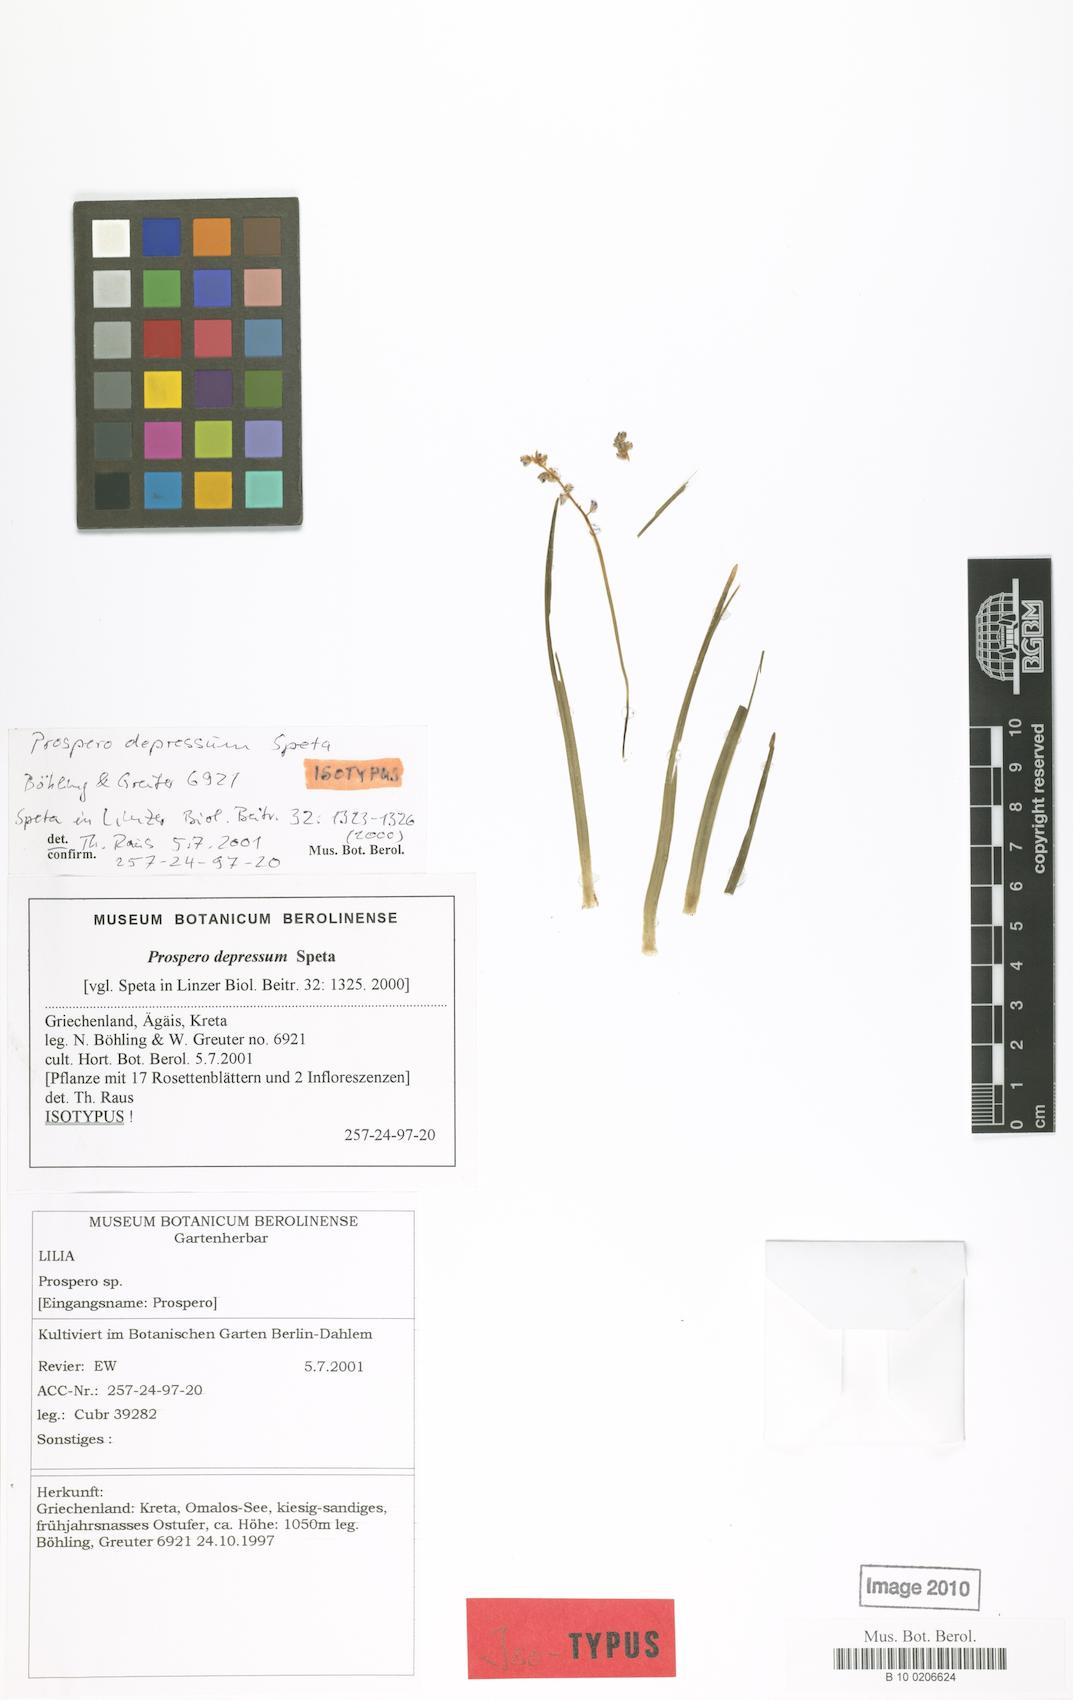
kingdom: Plantae
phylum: Tracheophyta
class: Liliopsida
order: Asparagales
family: Asparagaceae
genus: Prospero
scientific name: Prospero depressum
